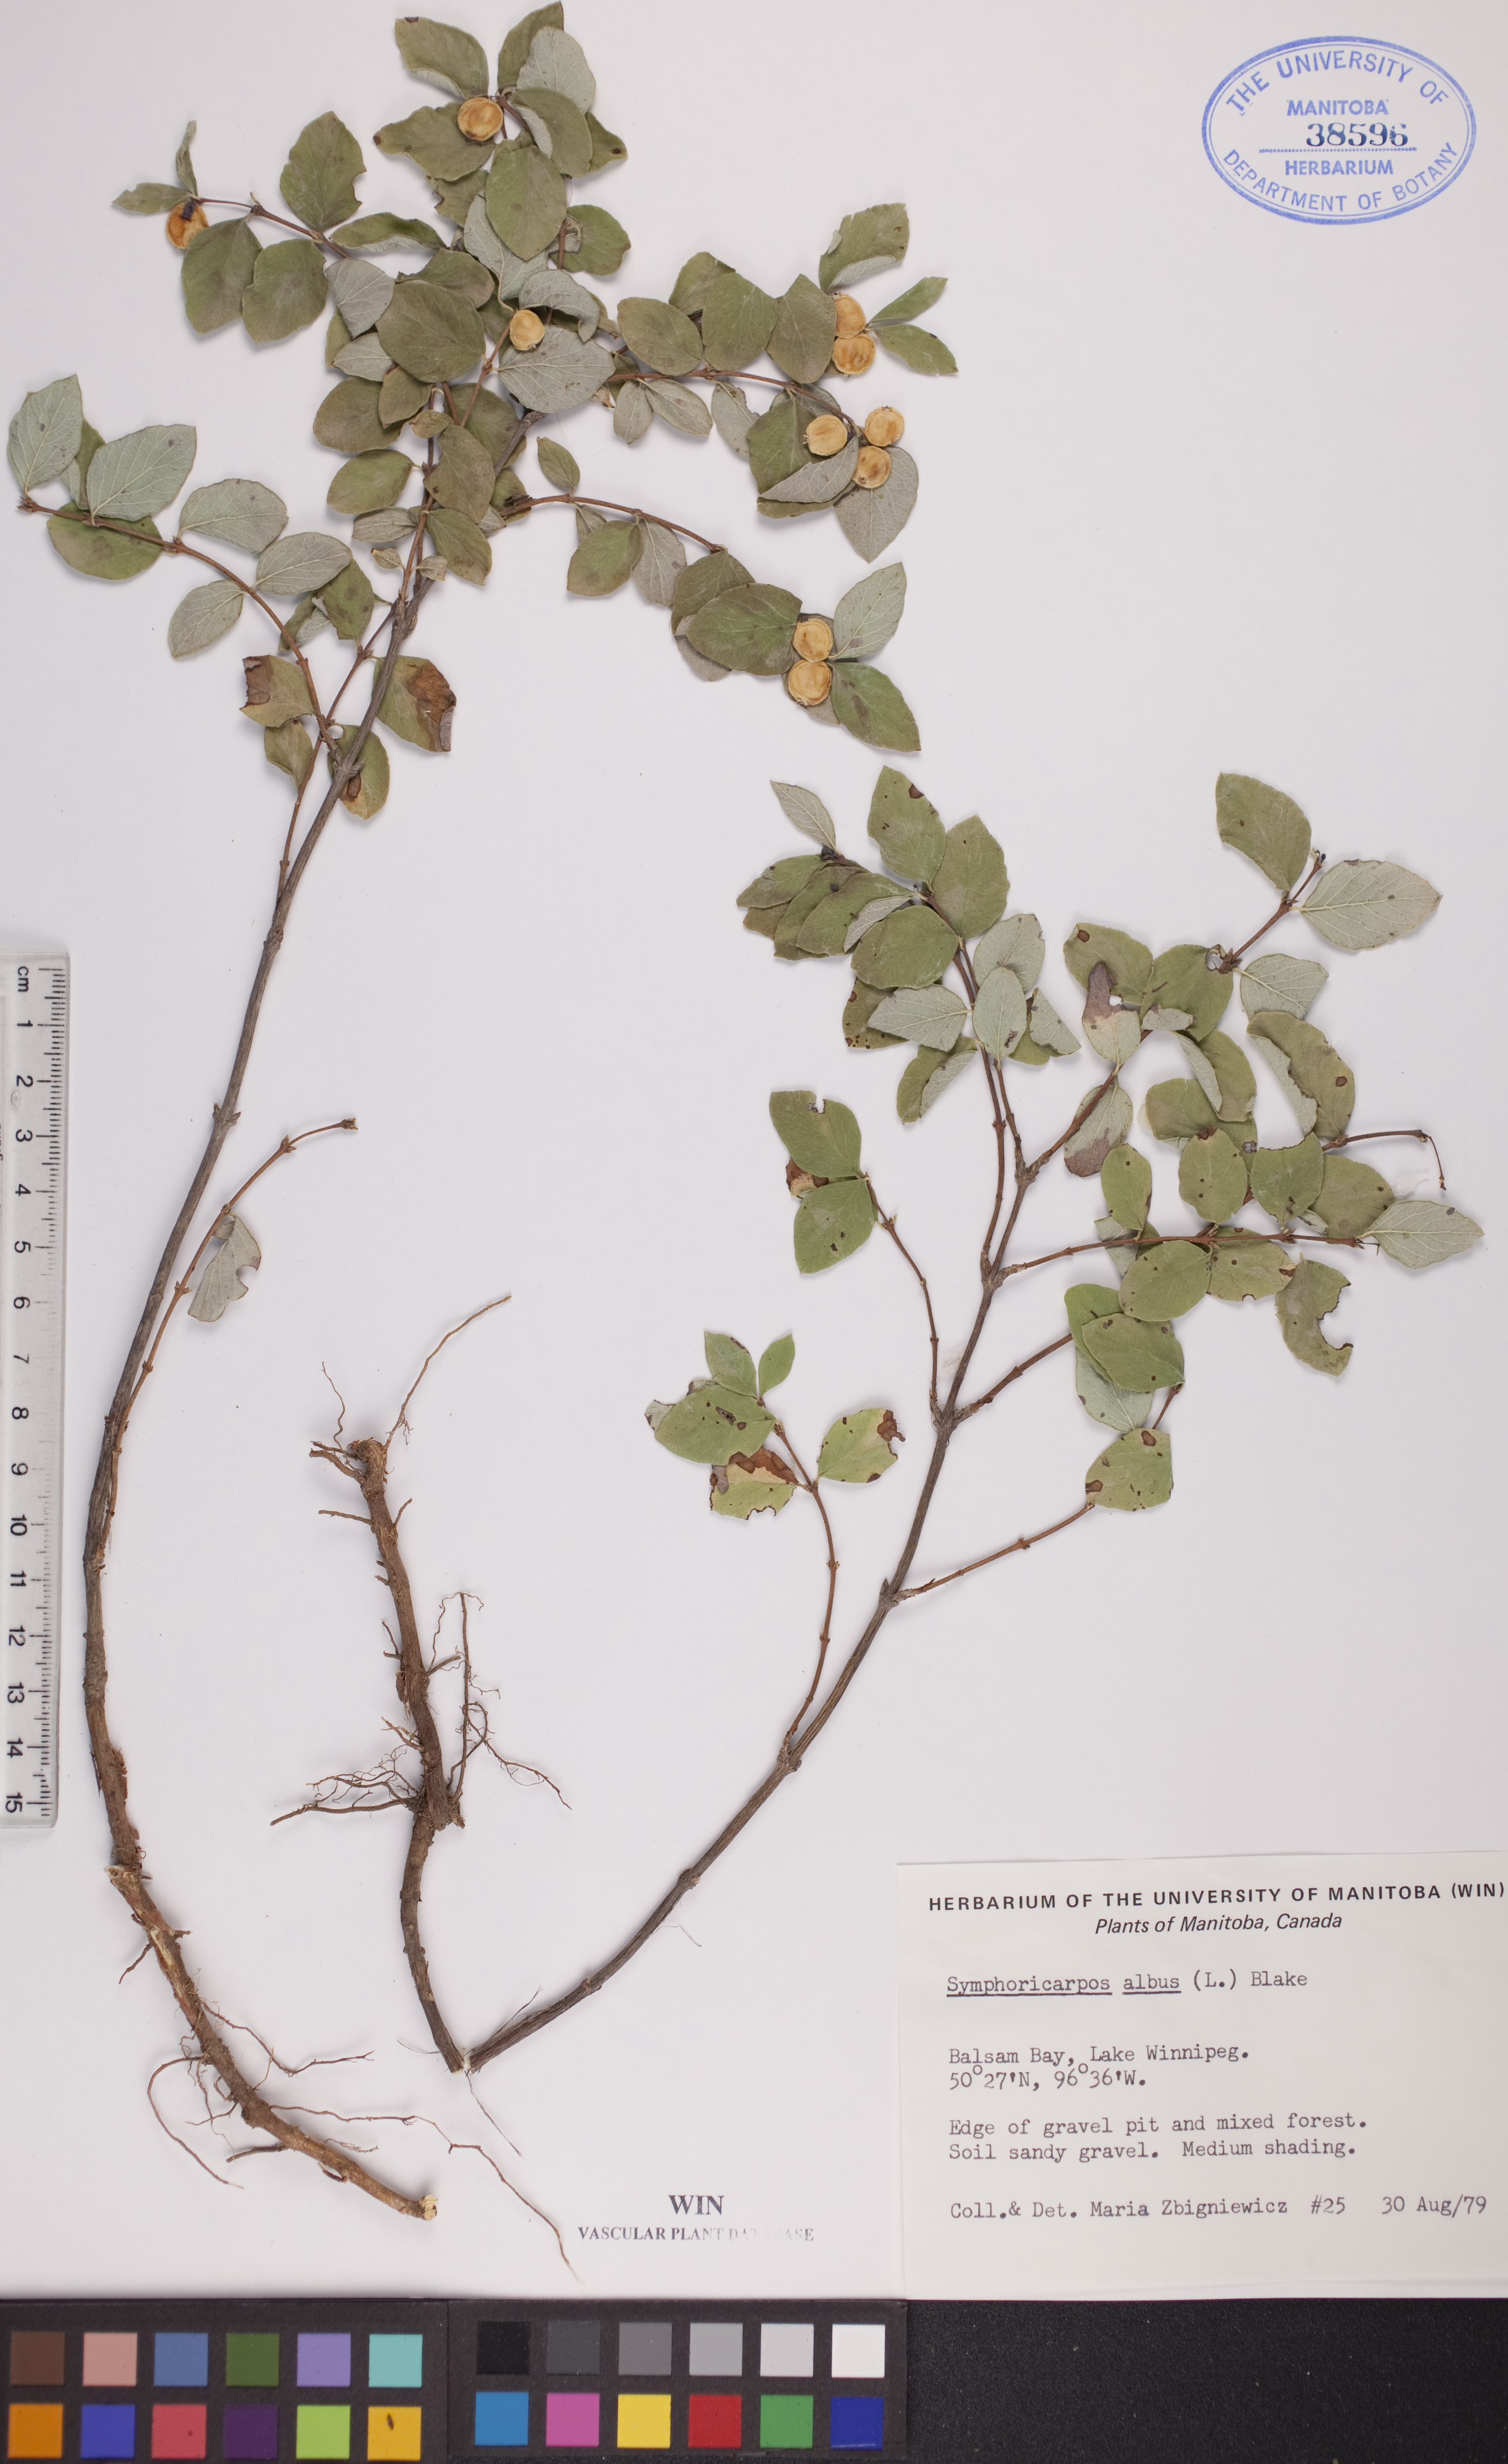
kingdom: Plantae
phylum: Tracheophyta
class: Magnoliopsida
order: Dipsacales
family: Caprifoliaceae
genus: Symphoricarpos
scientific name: Symphoricarpos albus
